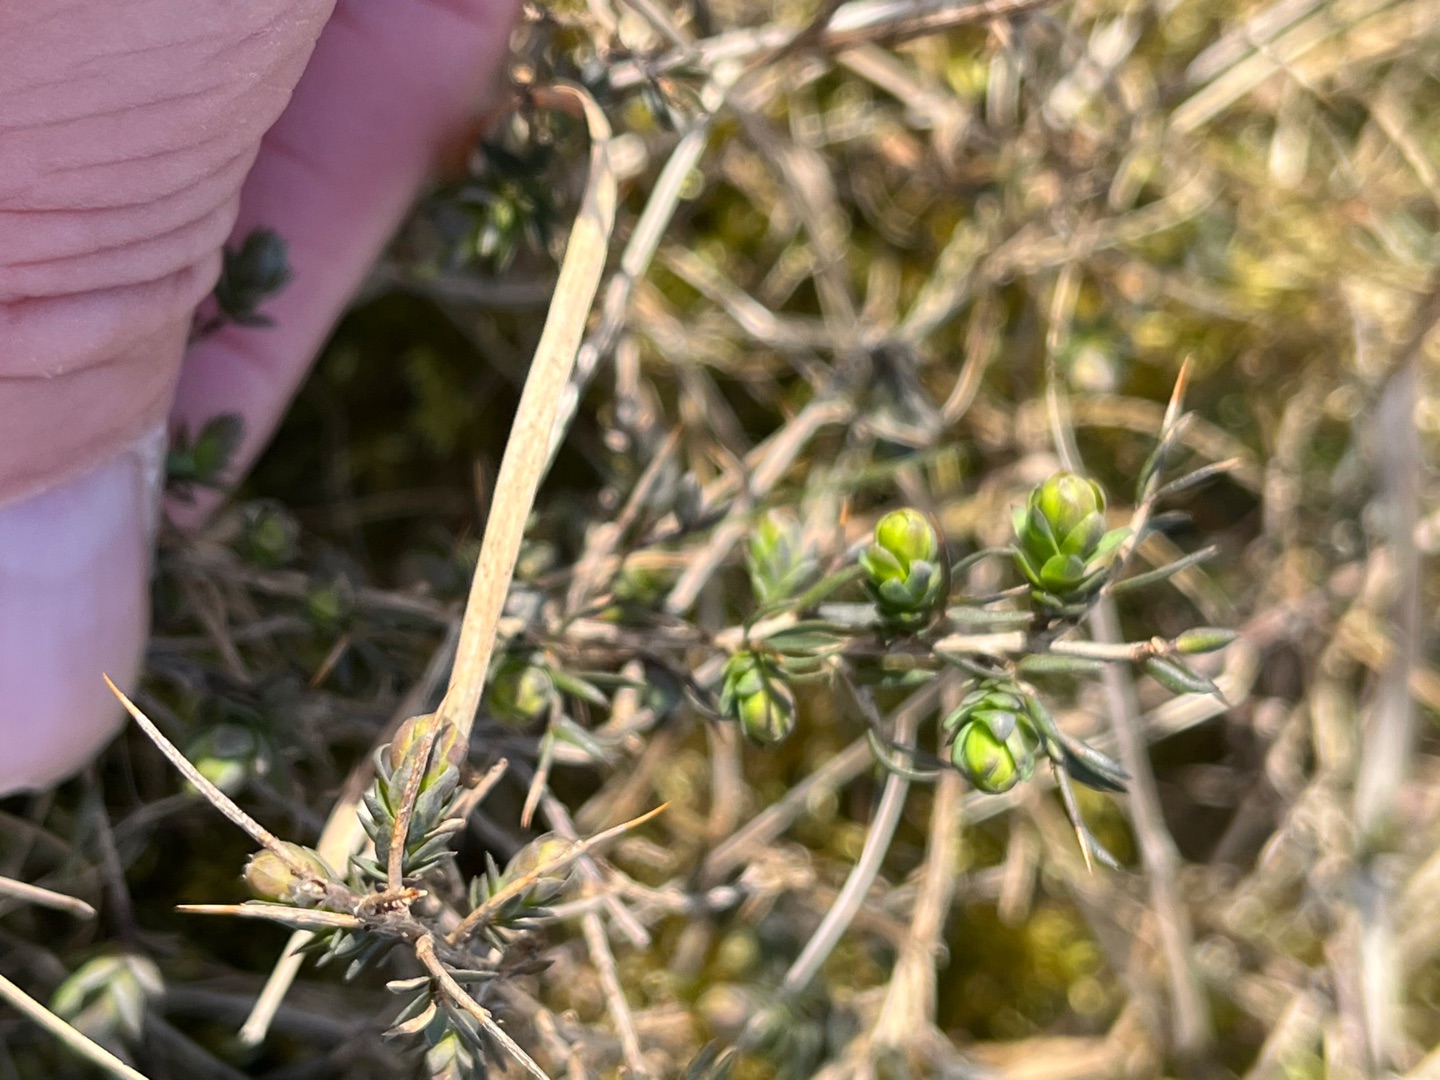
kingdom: Plantae
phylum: Tracheophyta
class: Magnoliopsida
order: Fabales
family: Fabaceae
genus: Genista
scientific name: Genista anglica
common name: Engelsk visse
